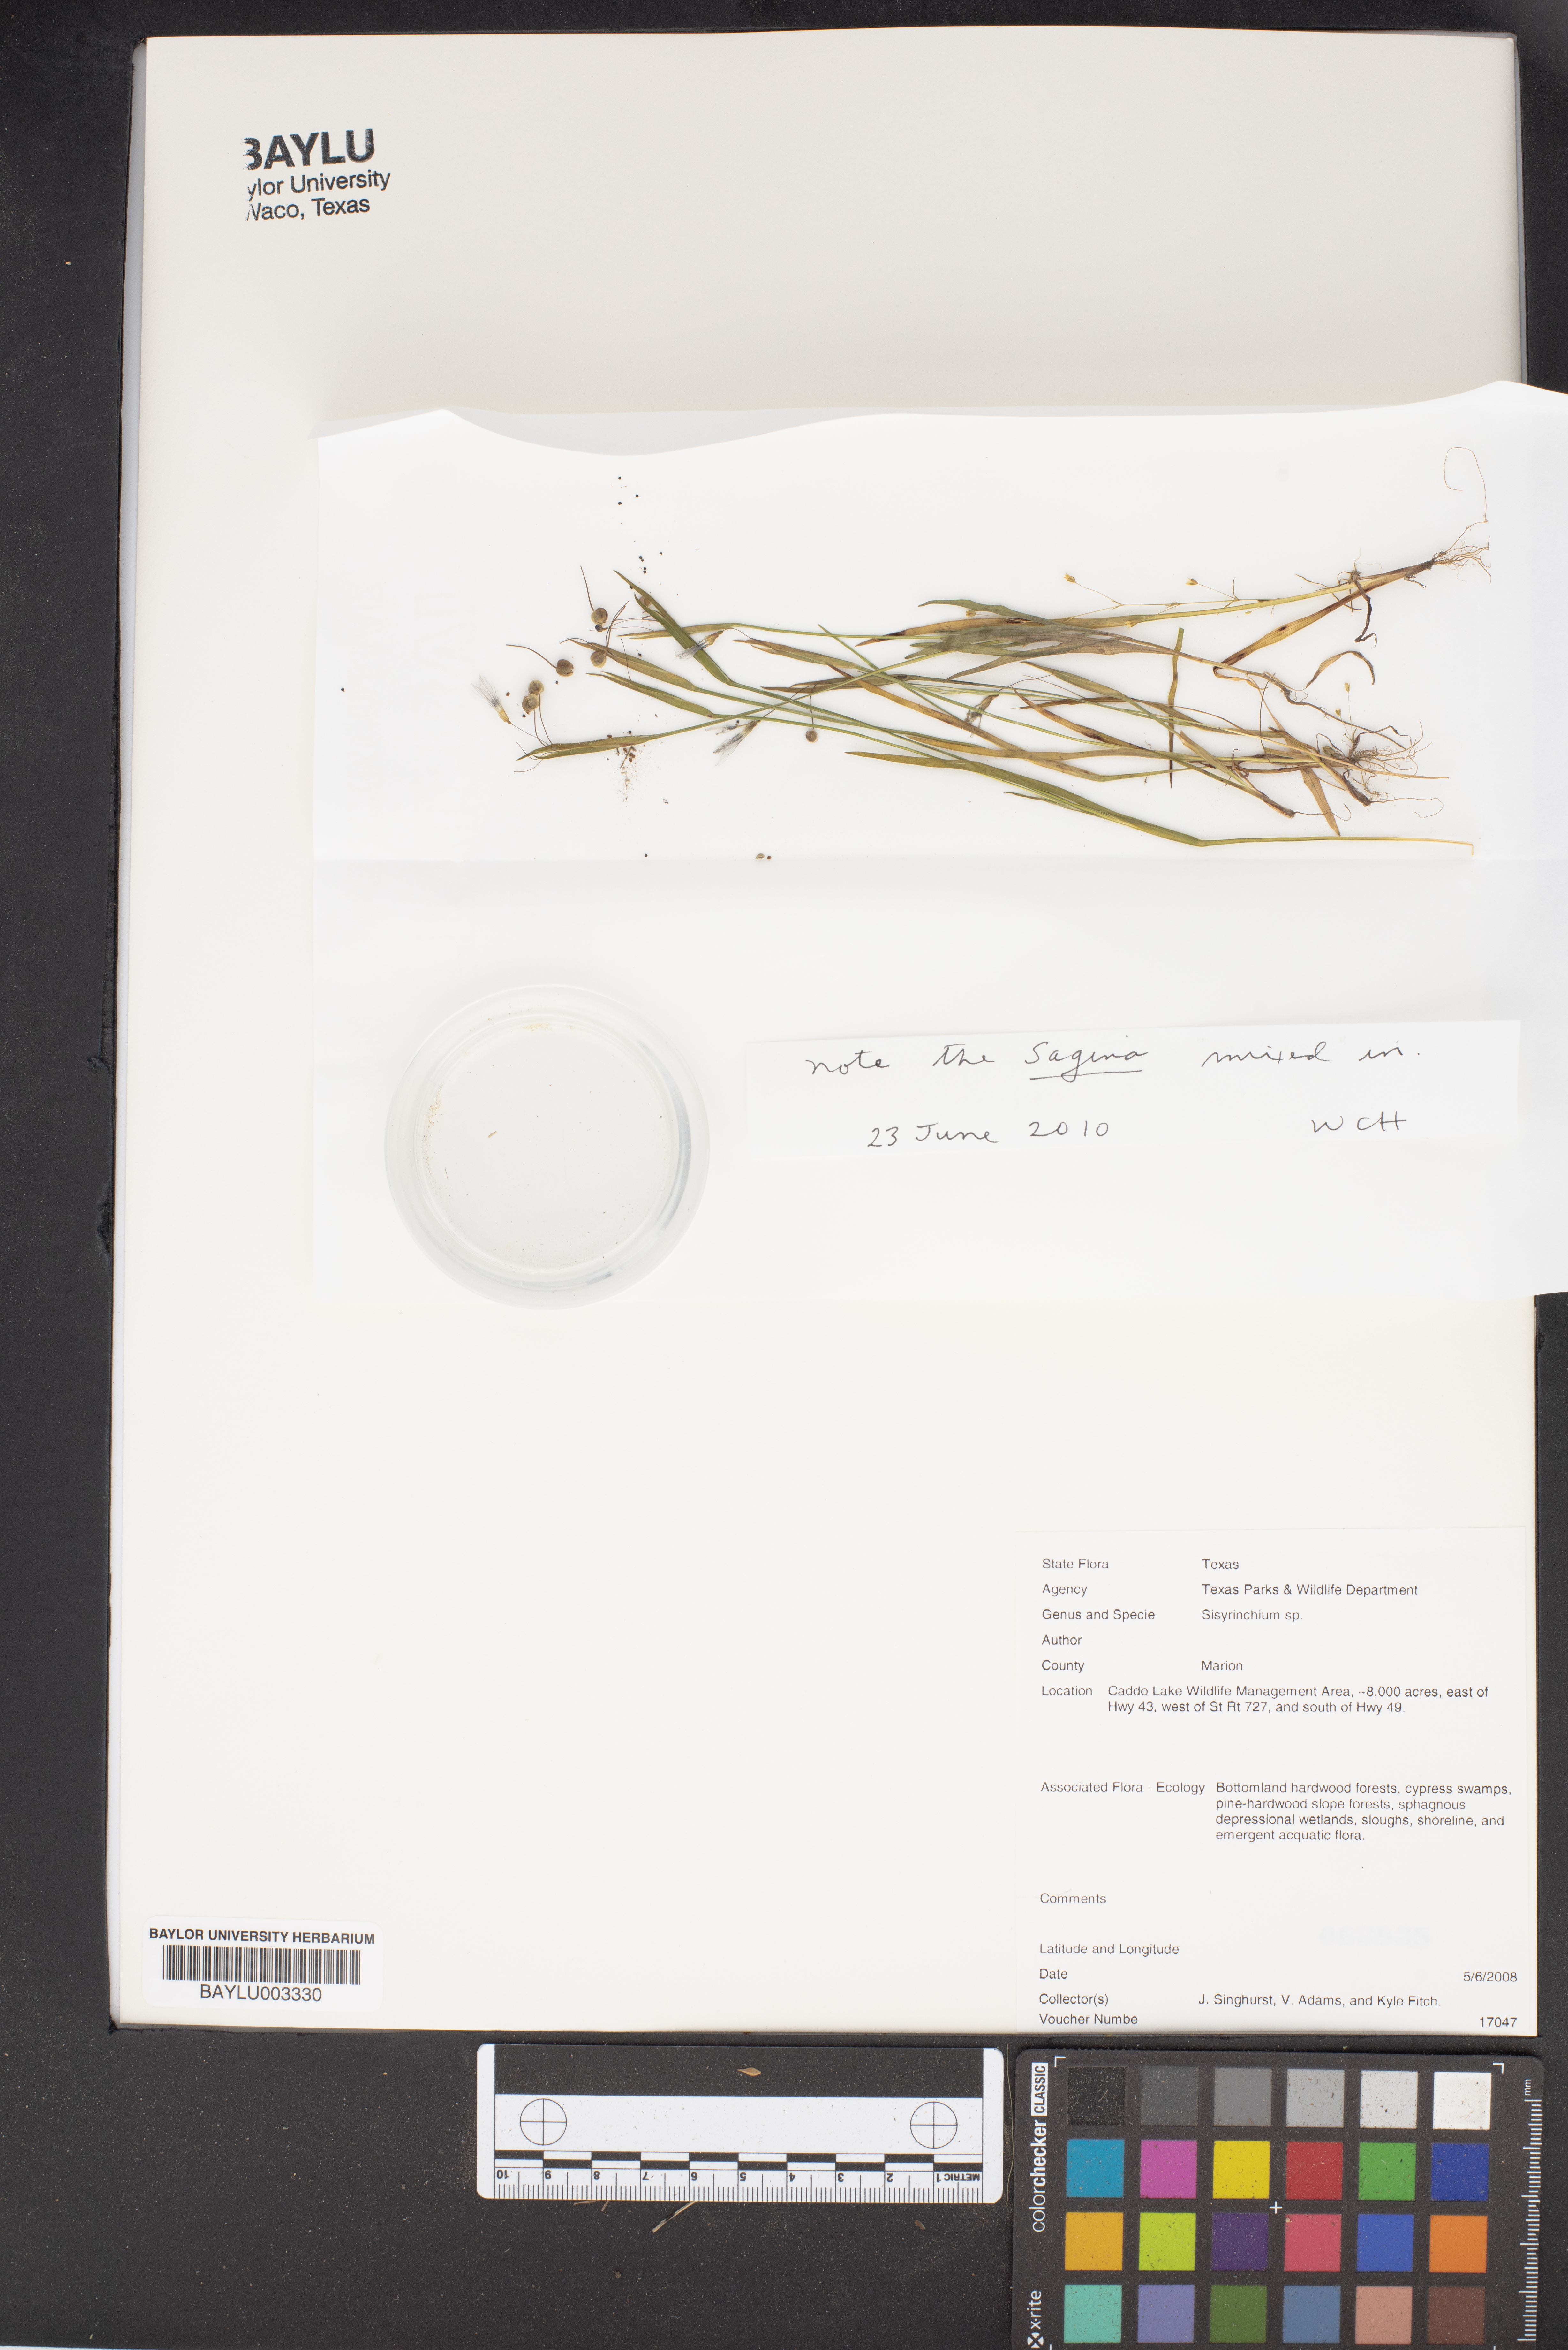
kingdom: Plantae
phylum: Tracheophyta
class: Liliopsida
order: Asparagales
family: Iridaceae
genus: Sisyrinchium
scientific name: Sisyrinchium
